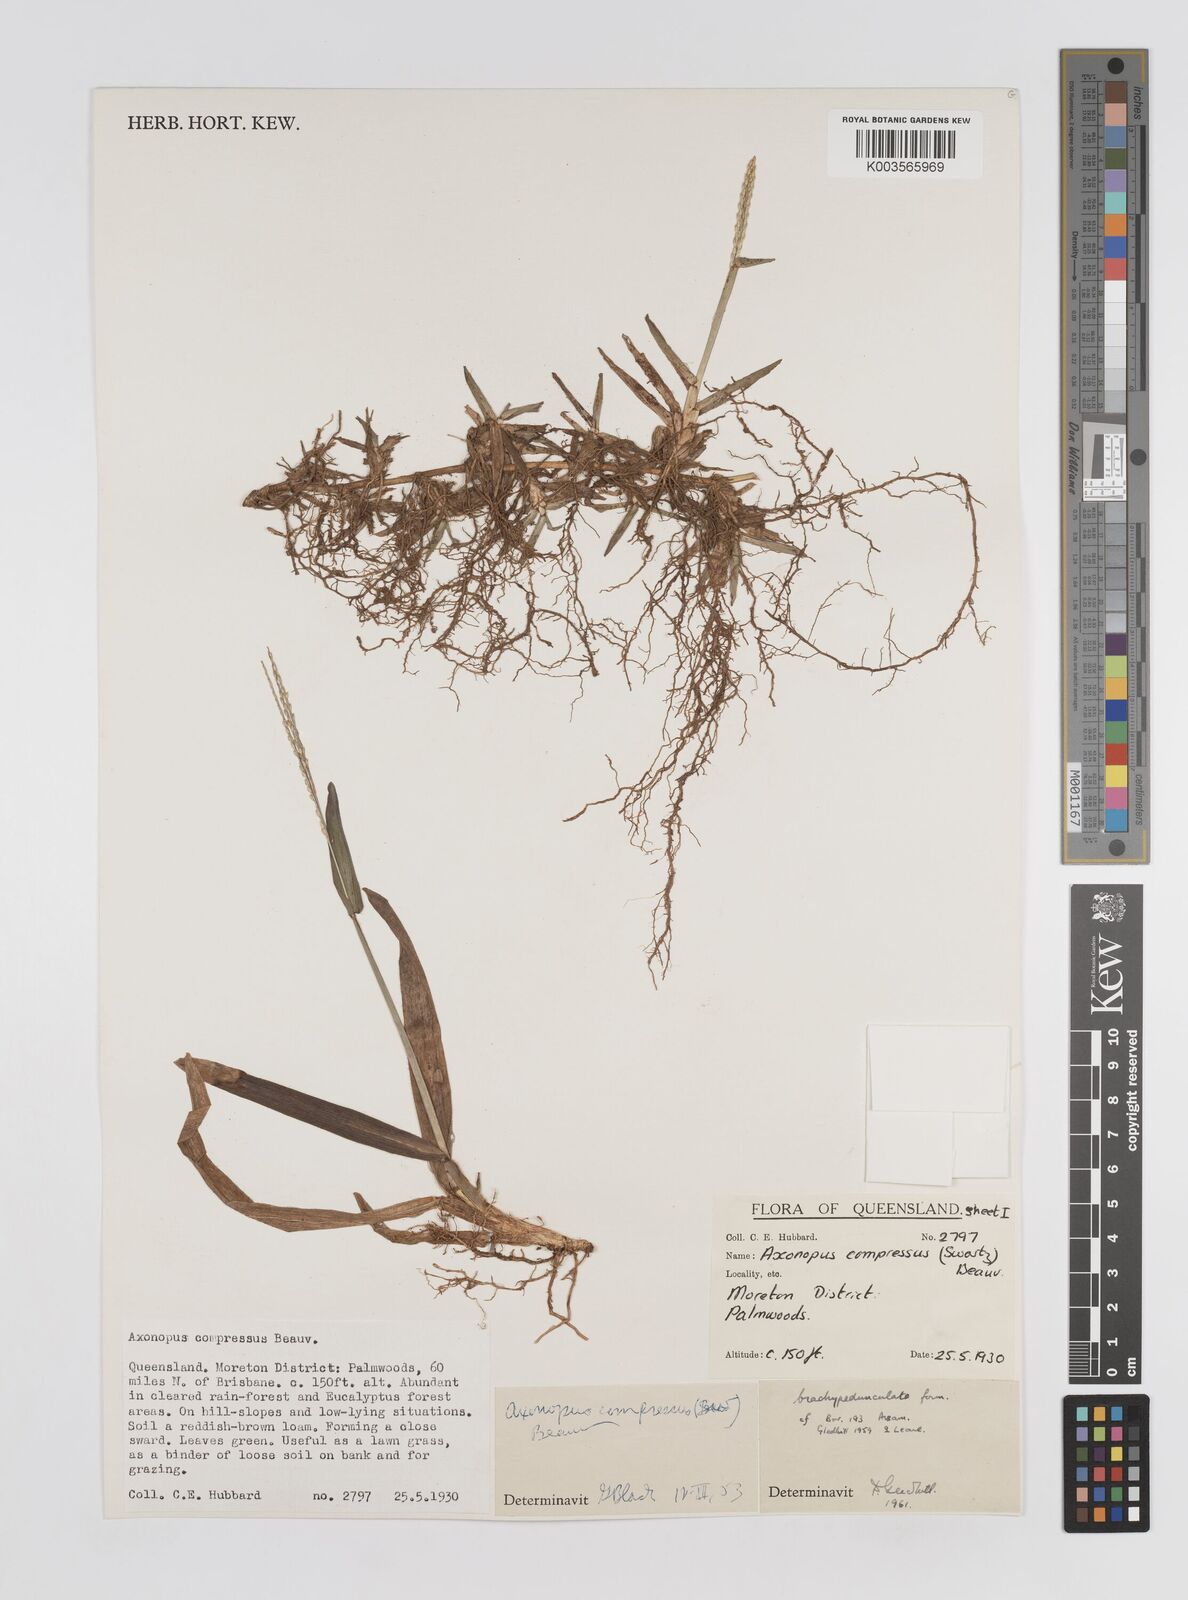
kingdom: Plantae
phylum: Tracheophyta
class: Liliopsida
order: Poales
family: Poaceae
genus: Axonopus
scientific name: Axonopus compressus
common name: American carpet grass
